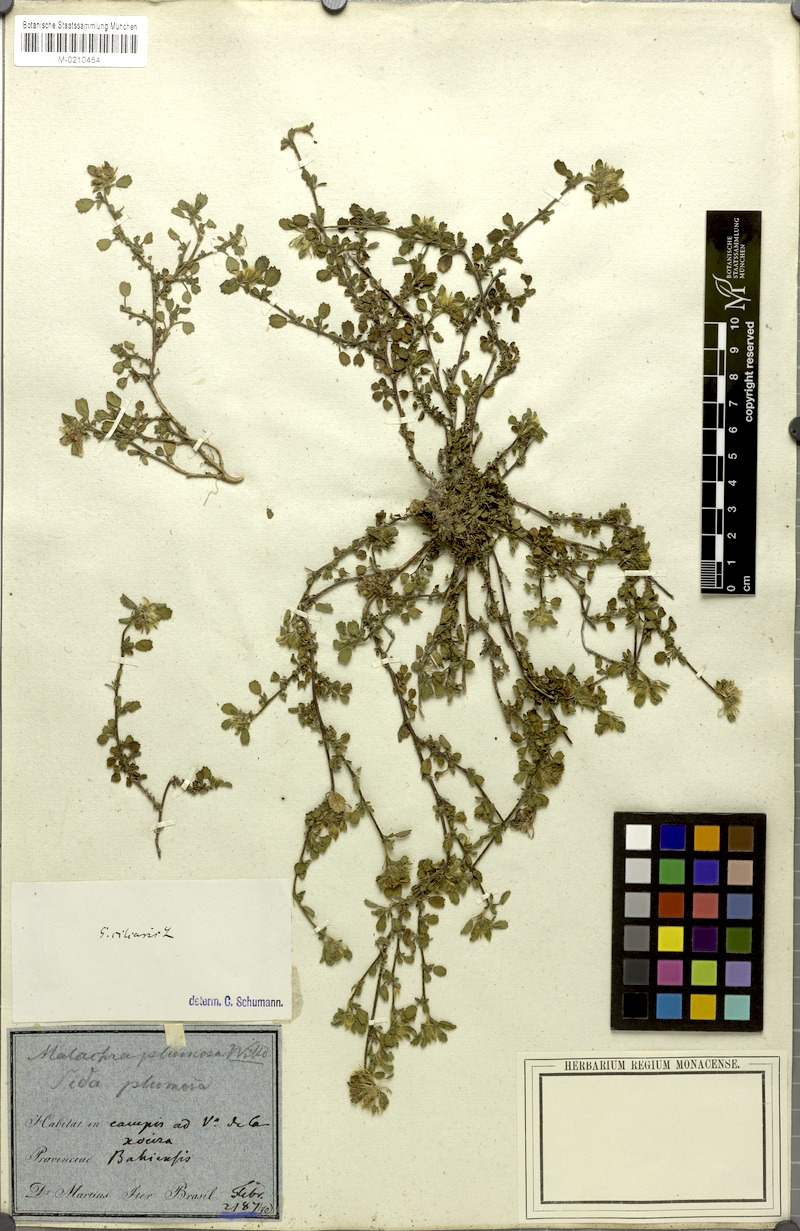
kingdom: Plantae
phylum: Tracheophyta
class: Magnoliopsida
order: Malvales
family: Malvaceae
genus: Sida
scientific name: Sida ciliaris
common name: Bracted fanpetals
